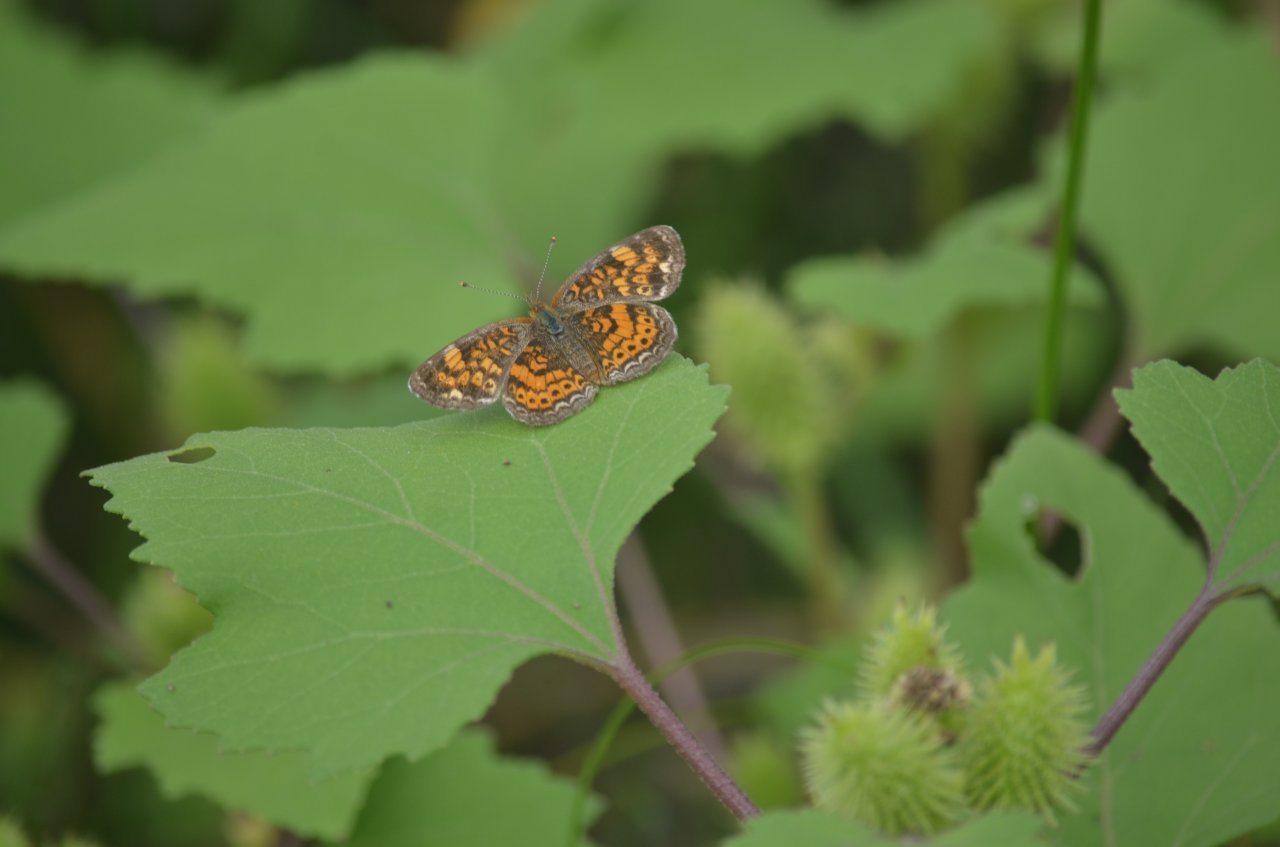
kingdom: Animalia
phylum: Arthropoda
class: Insecta
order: Lepidoptera
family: Nymphalidae
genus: Phyciodes
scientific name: Phyciodes tharos
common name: Pearl Crescent
